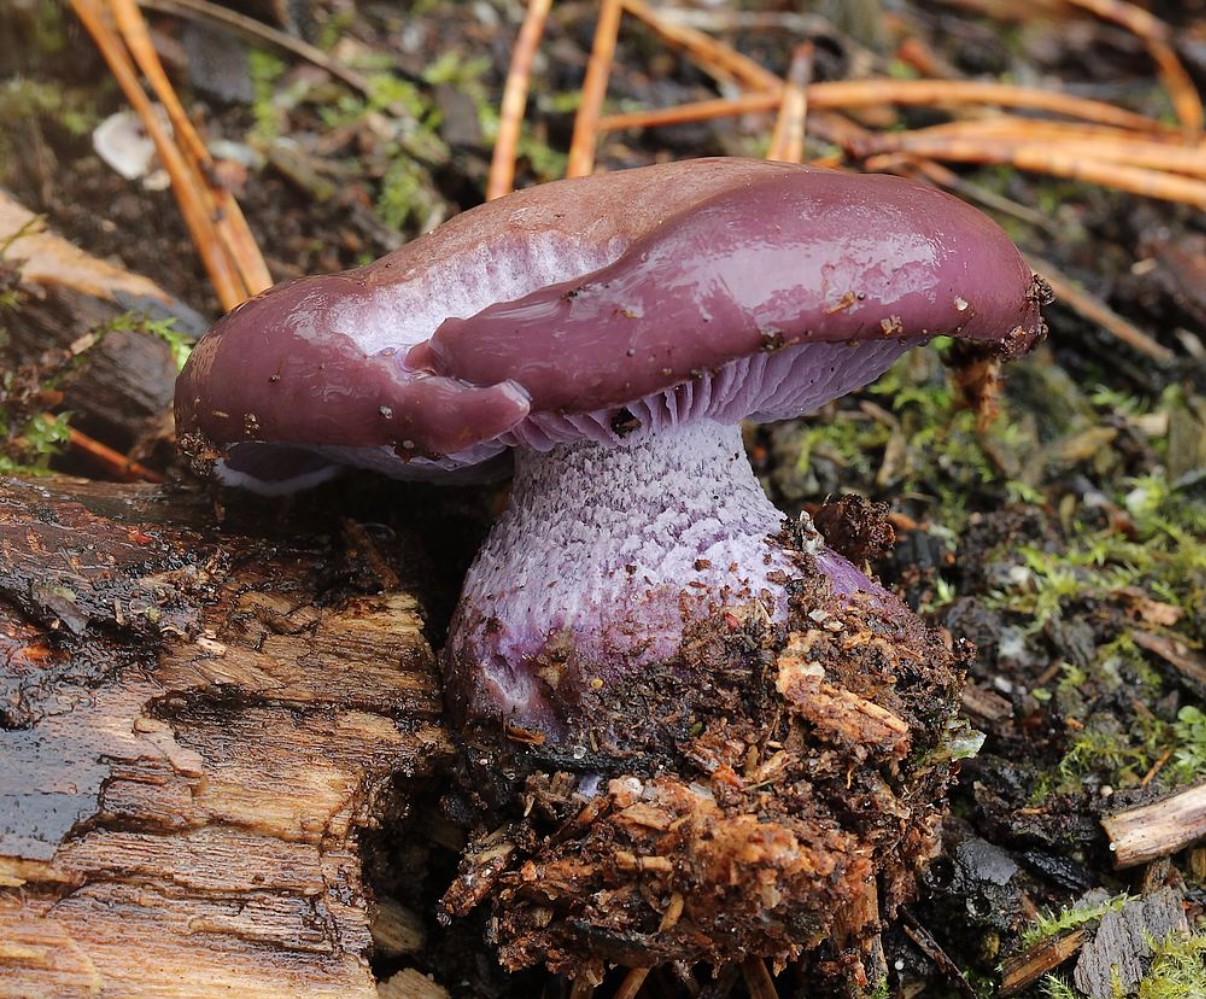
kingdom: Fungi
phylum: Basidiomycota
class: Agaricomycetes
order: Agaricales
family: Tricholomataceae
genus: Lepista
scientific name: Lepista nuda
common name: violet hekseringshat
